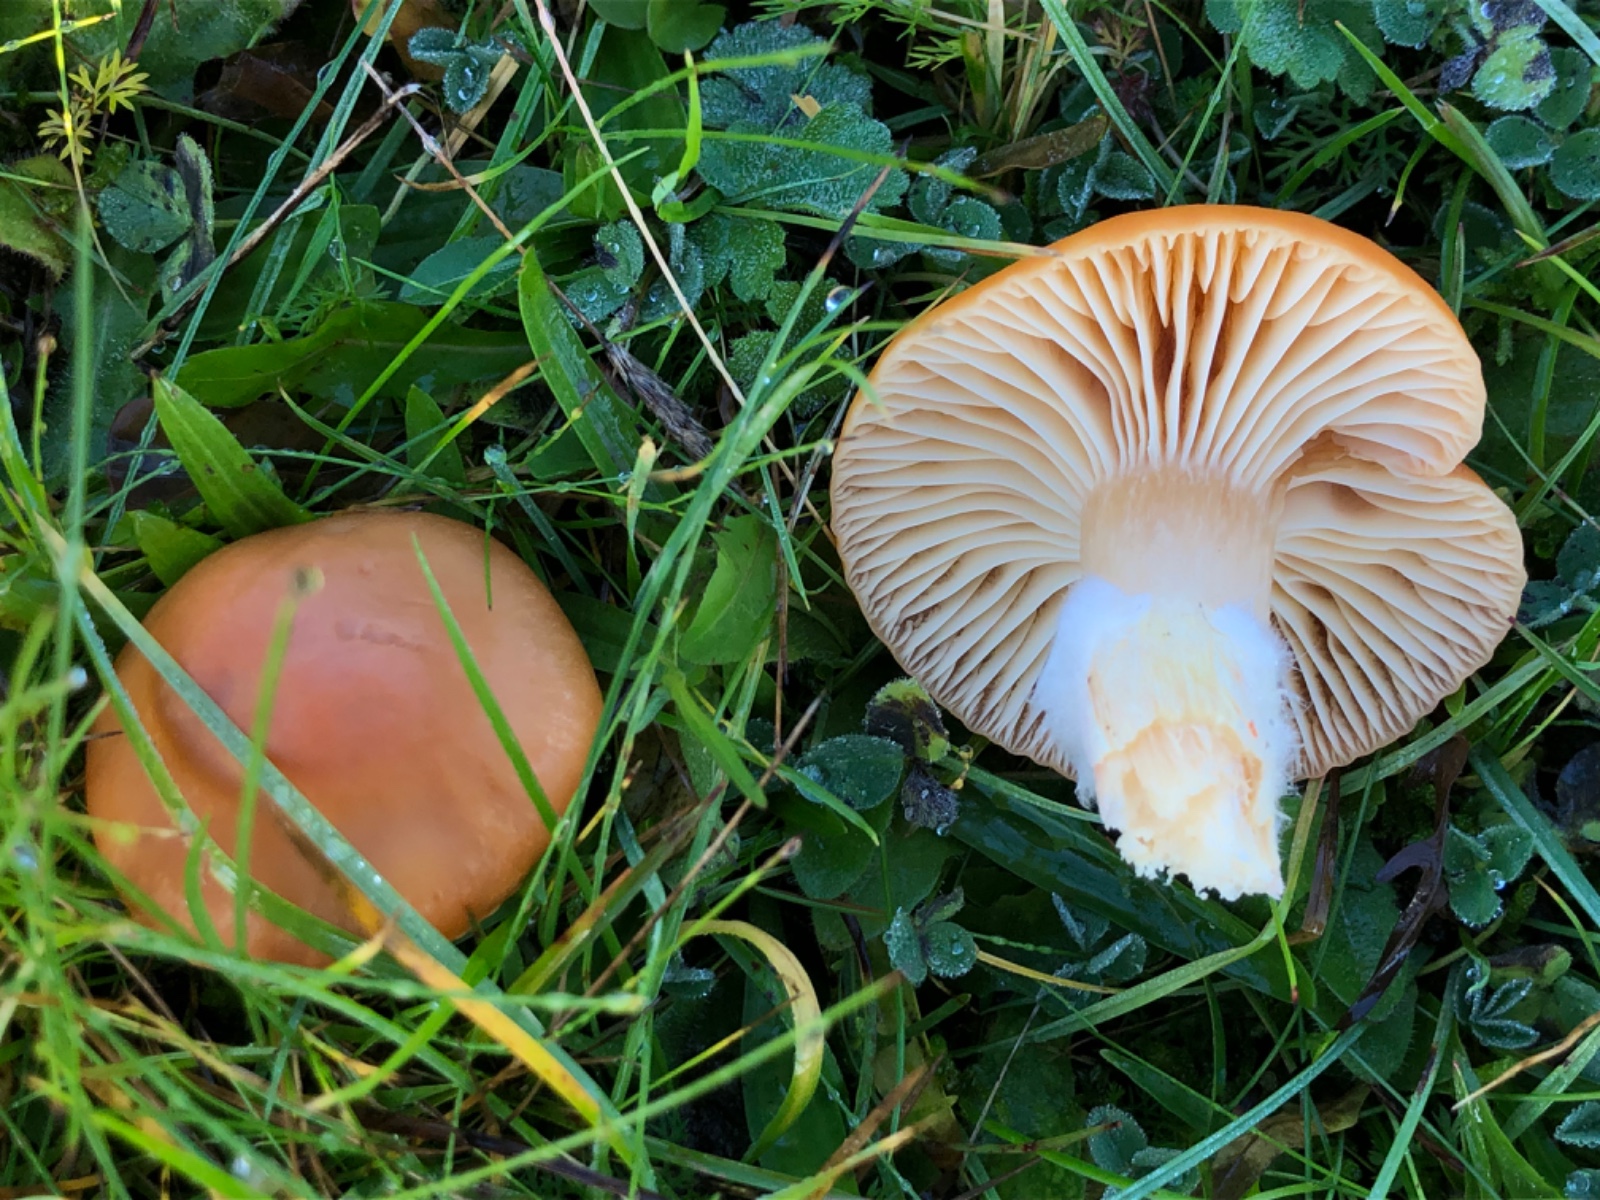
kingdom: Fungi
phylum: Basidiomycota
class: Agaricomycetes
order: Agaricales
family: Hygrophoraceae
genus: Cuphophyllus
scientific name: Cuphophyllus pratensis
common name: eng-vokshat
